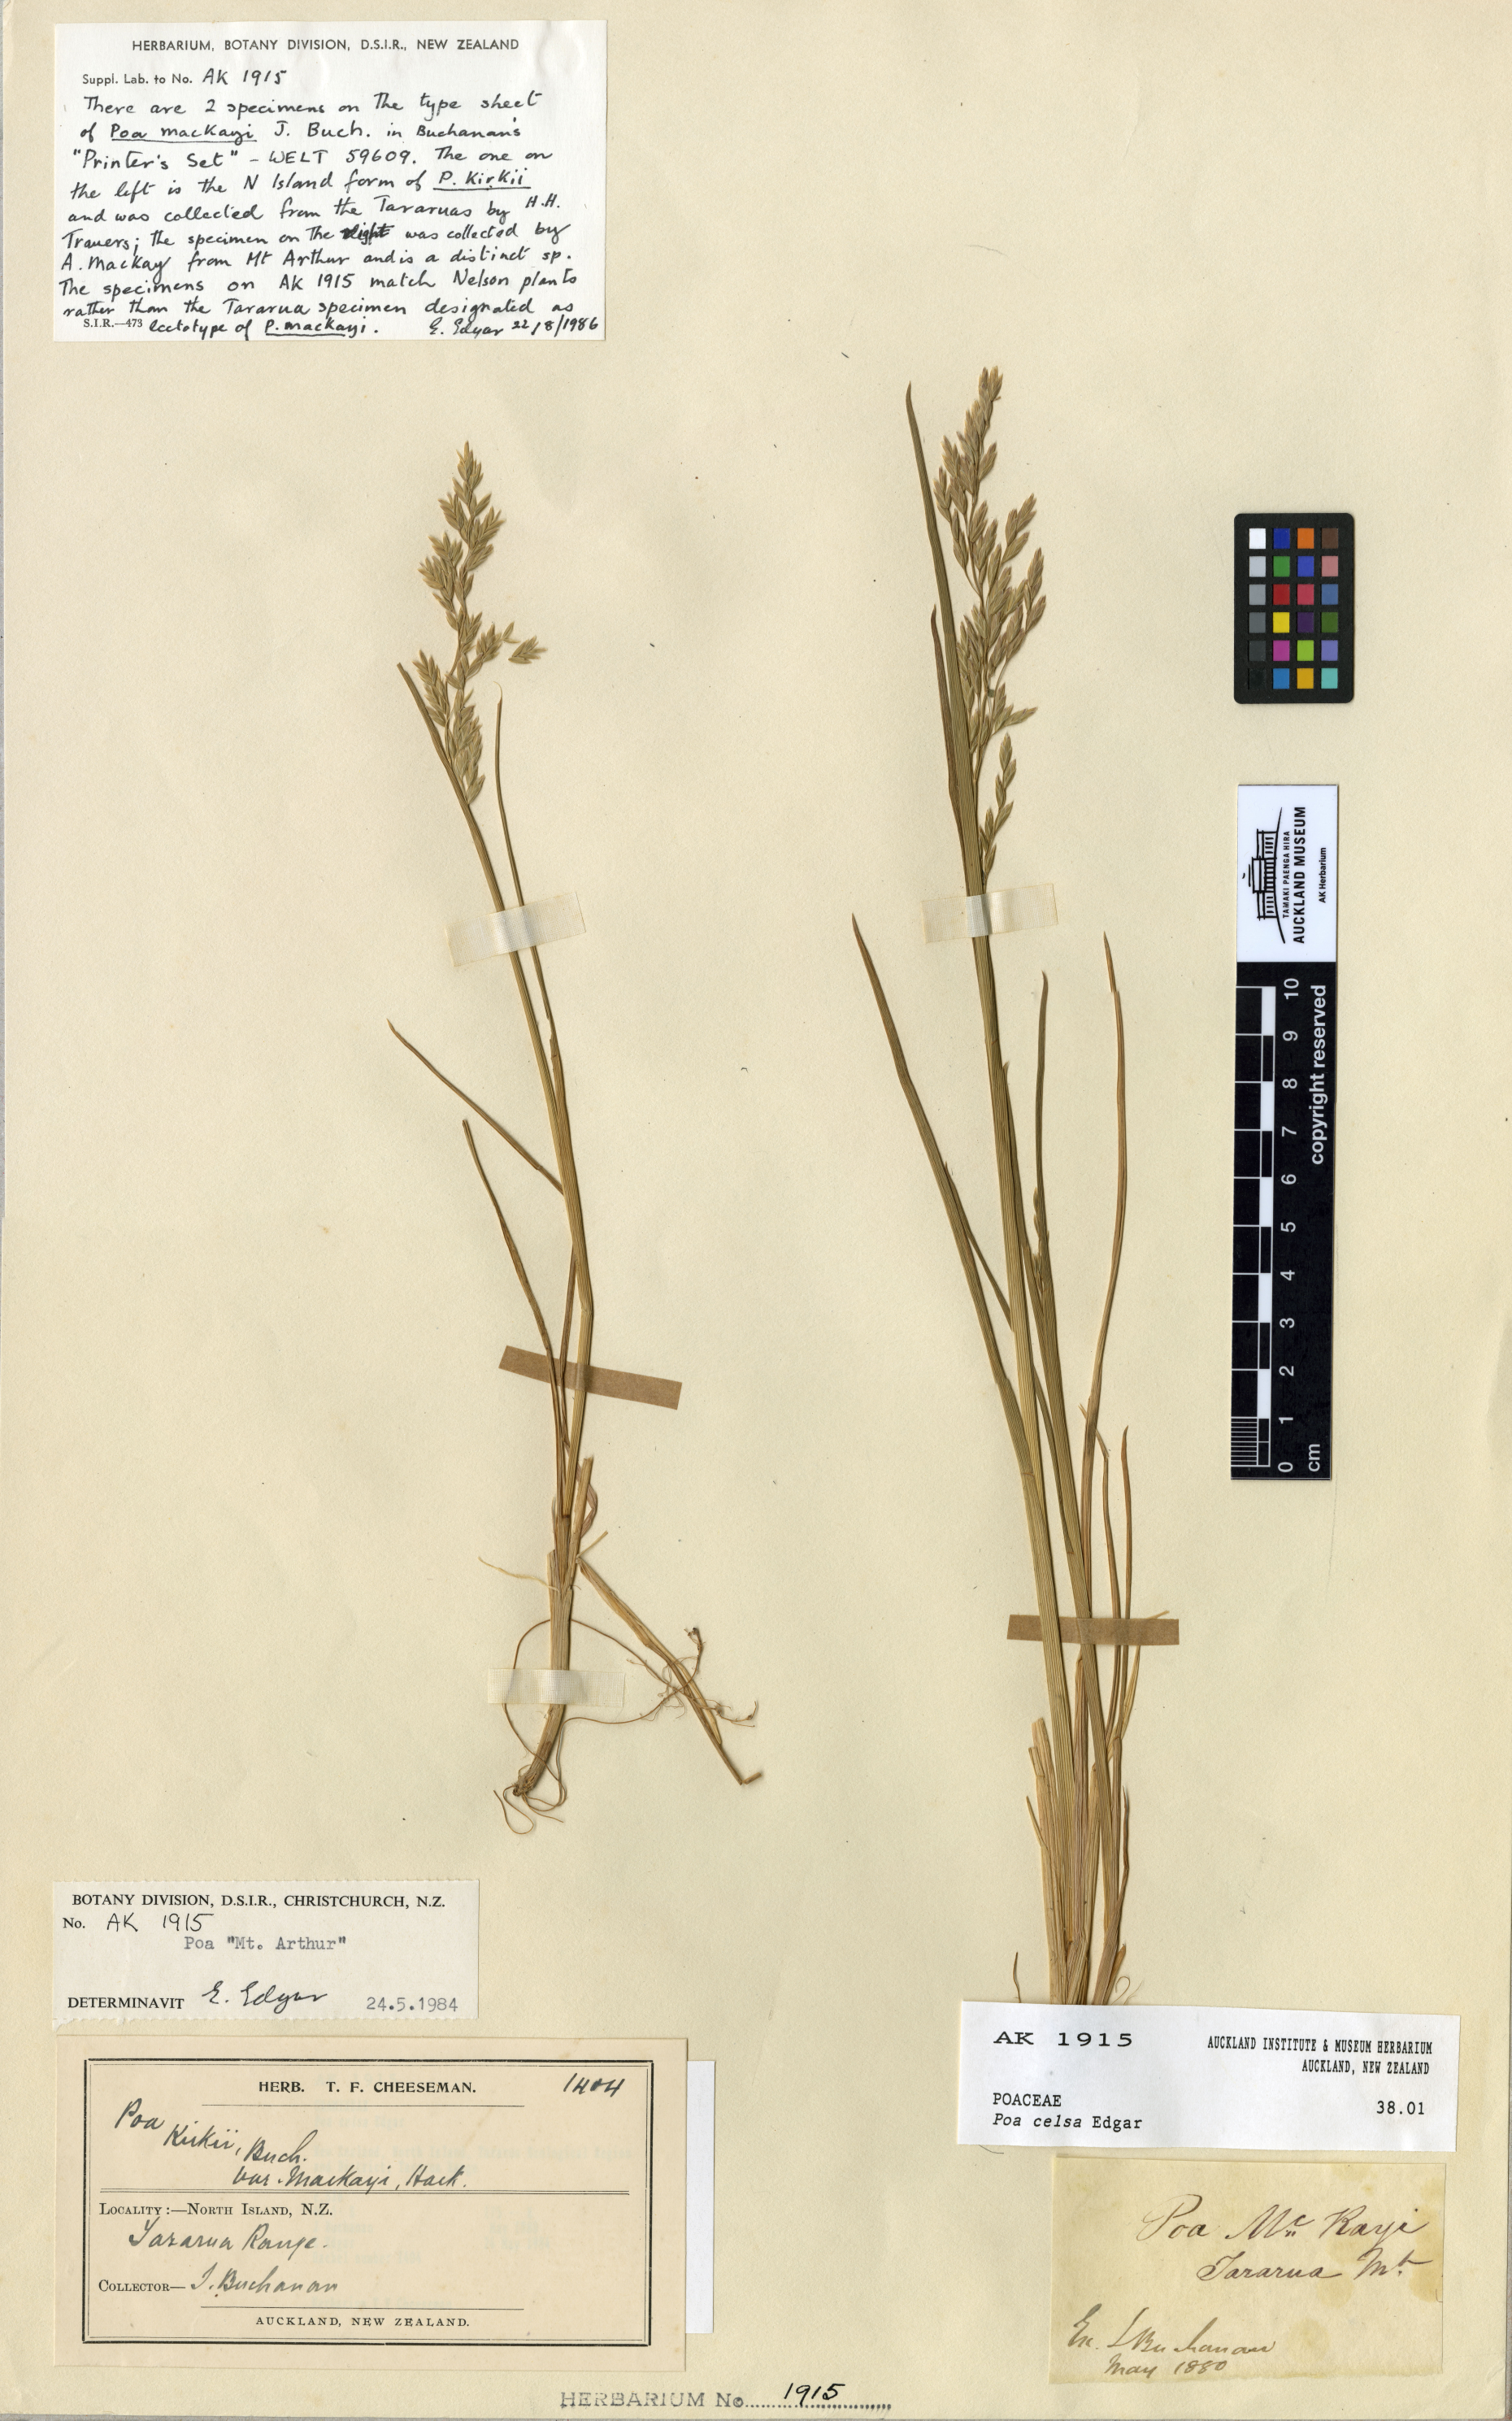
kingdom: Plantae
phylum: Tracheophyta
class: Liliopsida
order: Poales
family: Poaceae
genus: Poa
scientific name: Poa celsa
